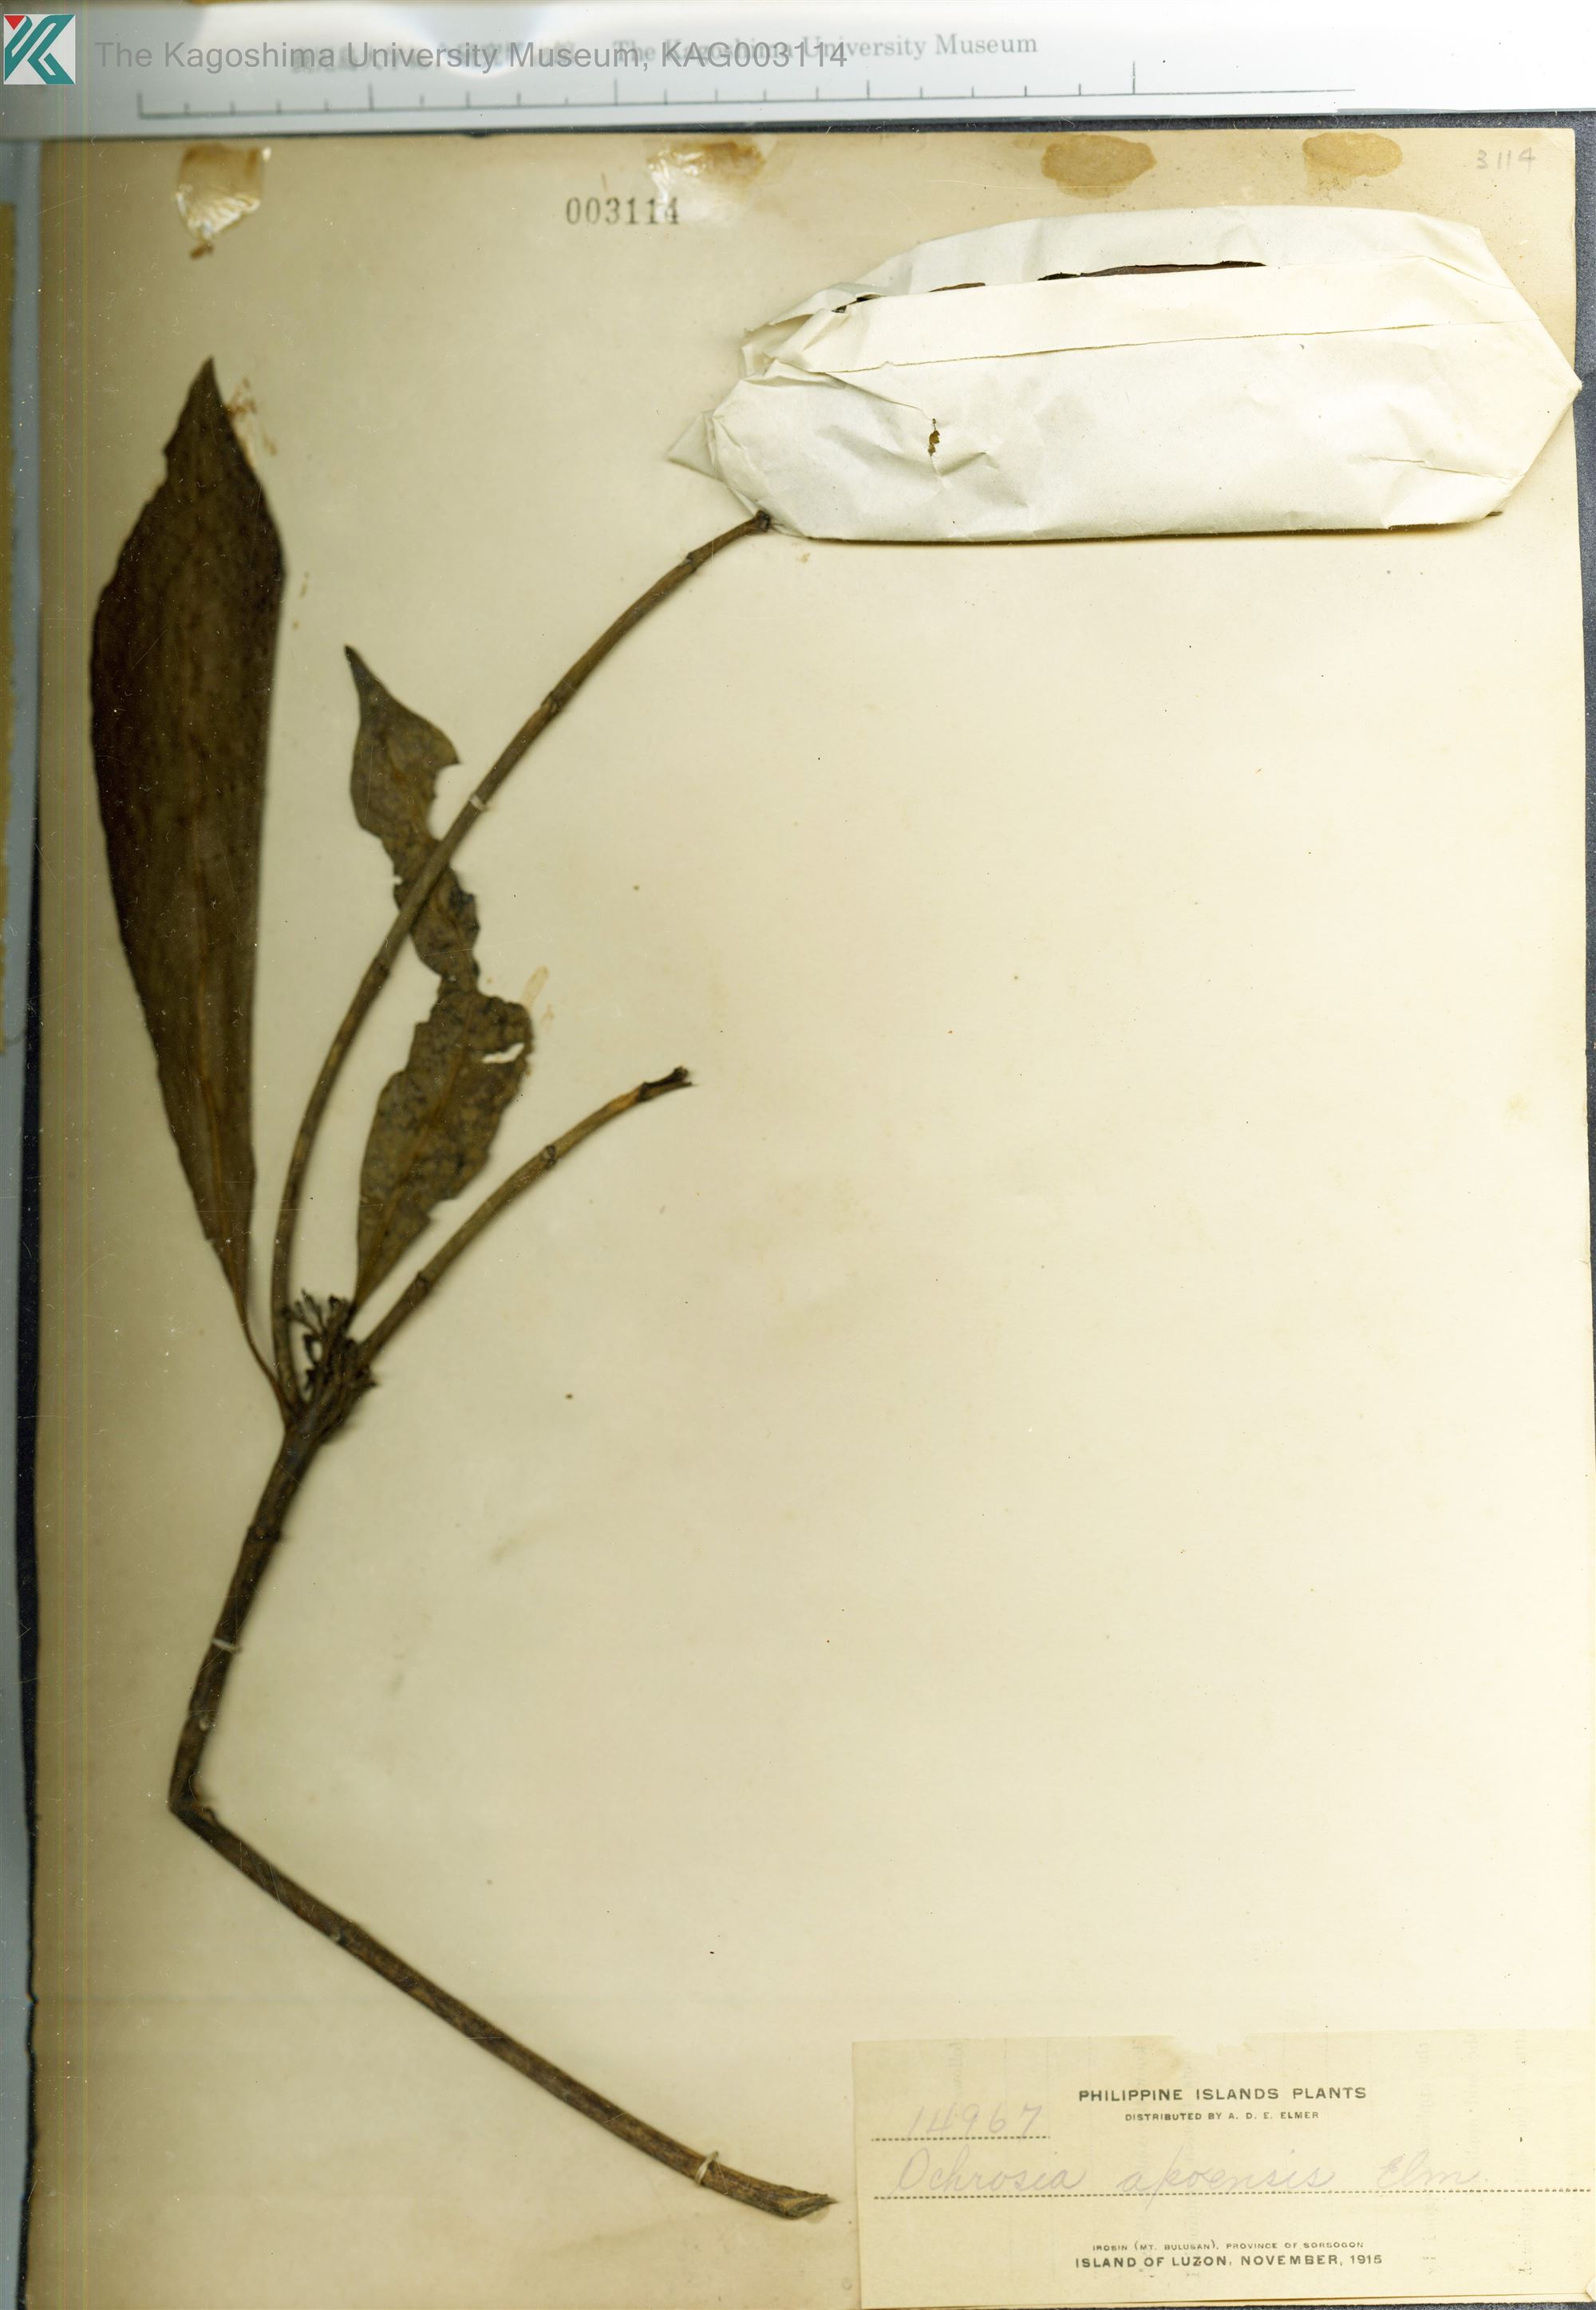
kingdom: Plantae
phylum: Tracheophyta
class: Magnoliopsida
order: Gentianales
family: Apocynaceae
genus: Ochrosia
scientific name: Ochrosia apoensis
